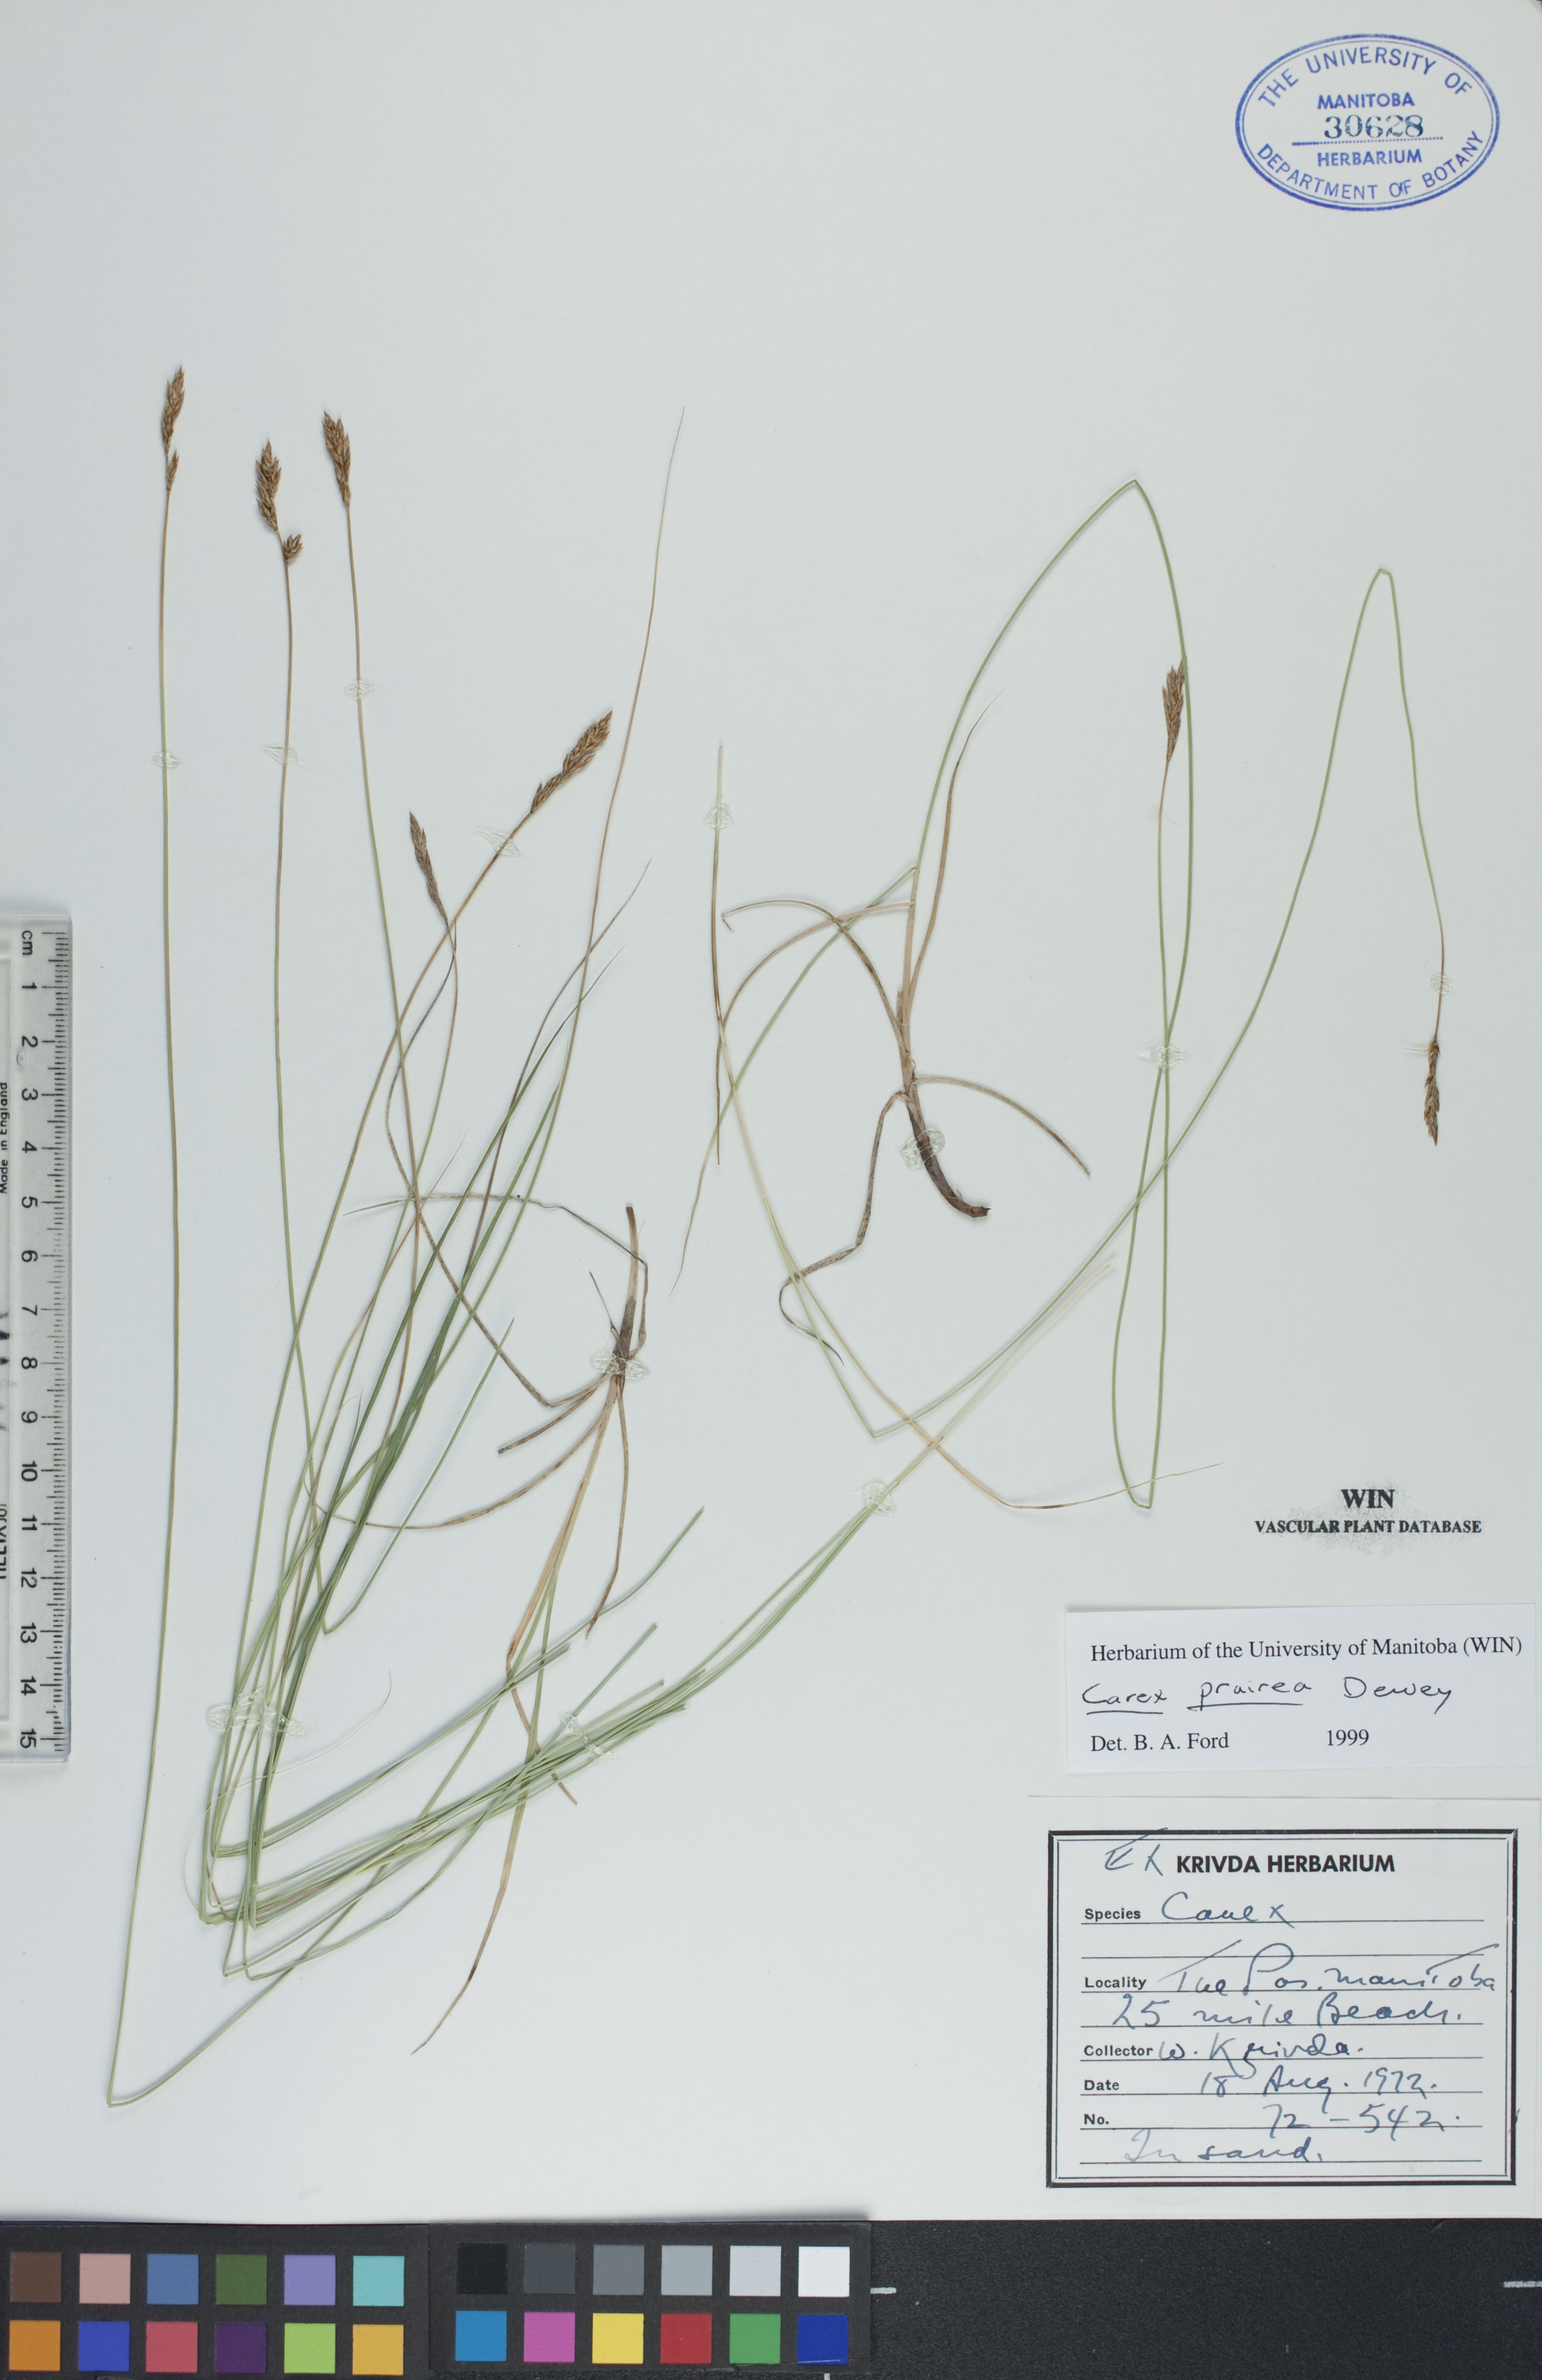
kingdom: Plantae
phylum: Tracheophyta
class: Liliopsida
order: Poales
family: Cyperaceae
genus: Carex
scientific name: Carex prairea
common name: Prairie sedge
